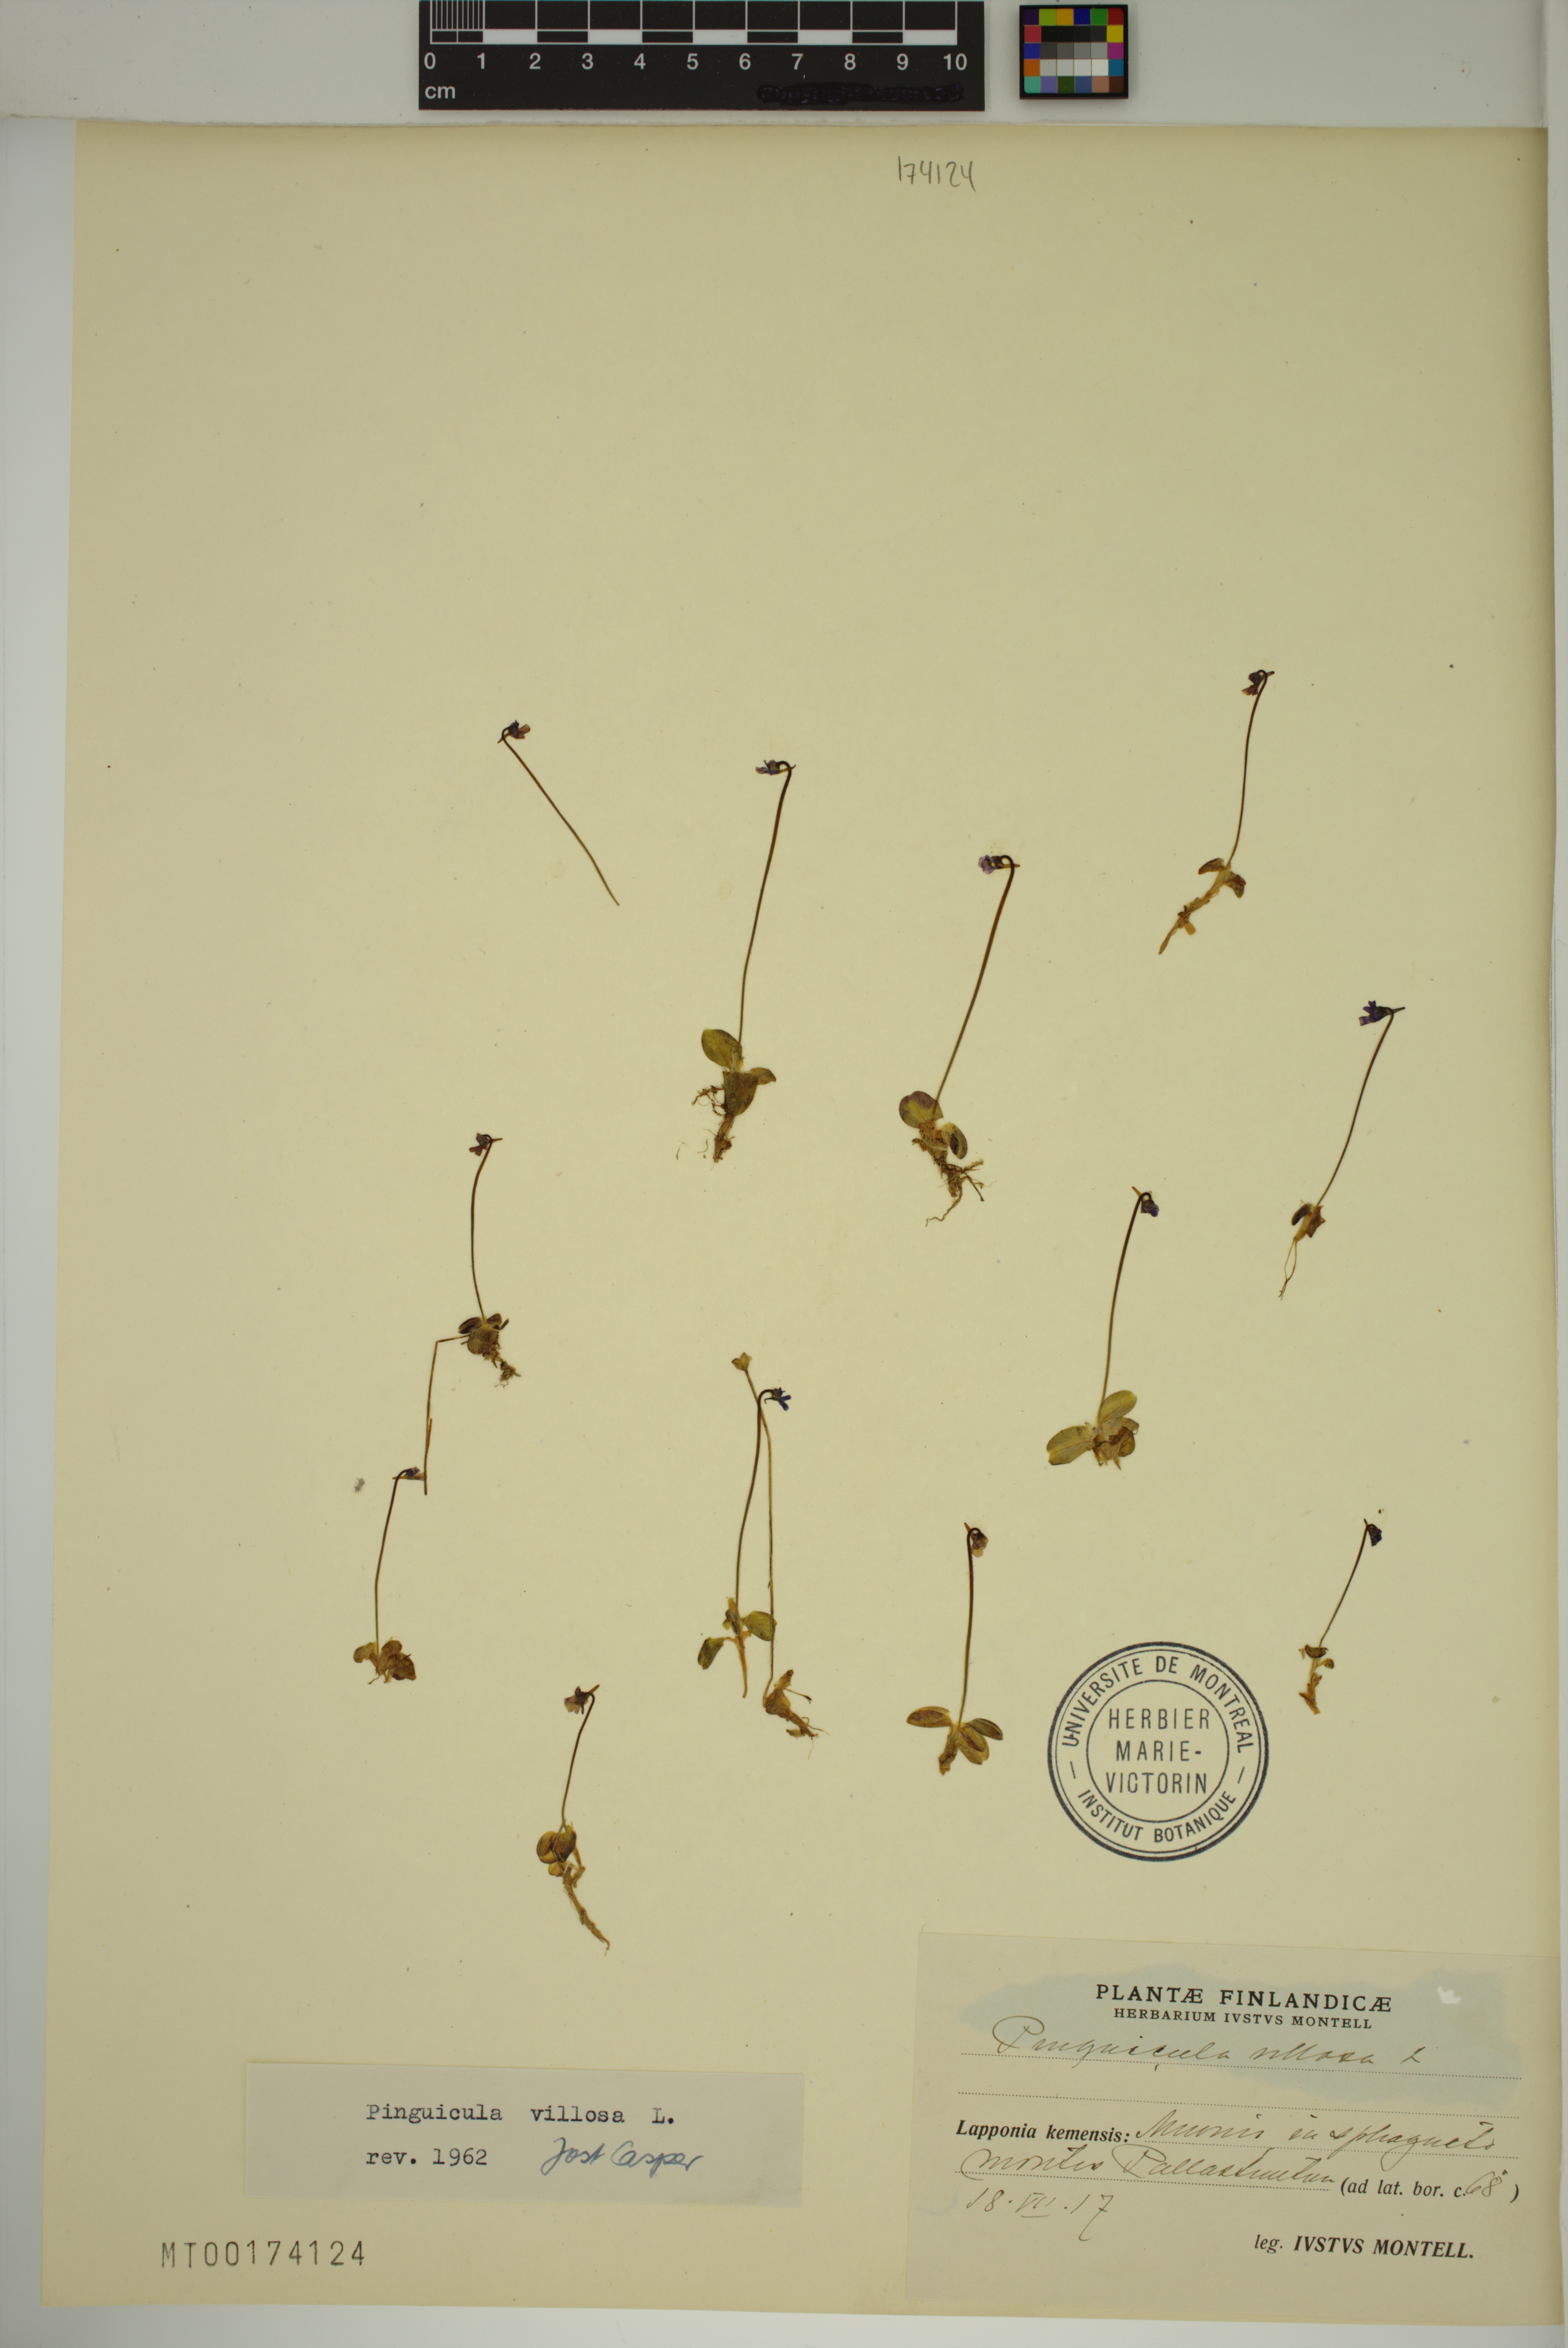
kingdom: Plantae
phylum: Tracheophyta
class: Magnoliopsida
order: Lamiales
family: Lentibulariaceae
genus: Pinguicula
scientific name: Pinguicula villosa
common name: Hairy butterwort
